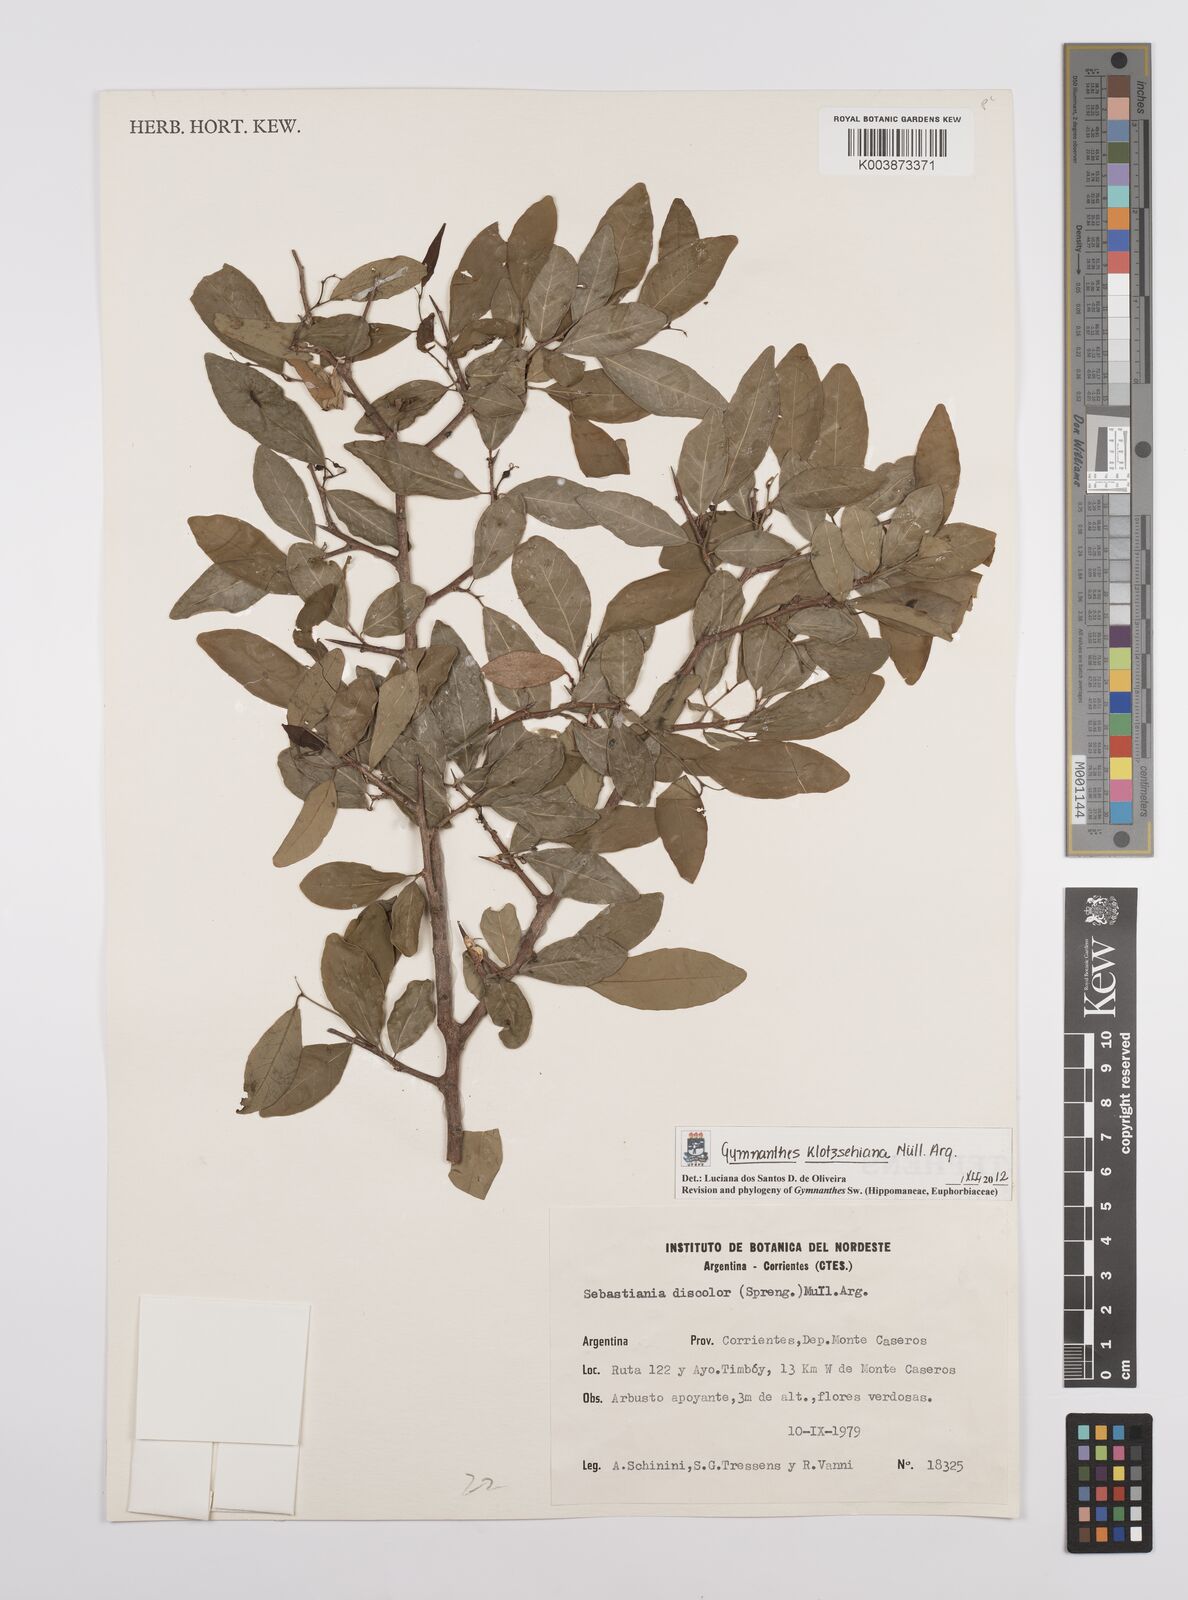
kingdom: Plantae
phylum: Tracheophyta
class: Magnoliopsida
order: Malpighiales
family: Euphorbiaceae
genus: Sebastiania
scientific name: Sebastiania klotzschiana
